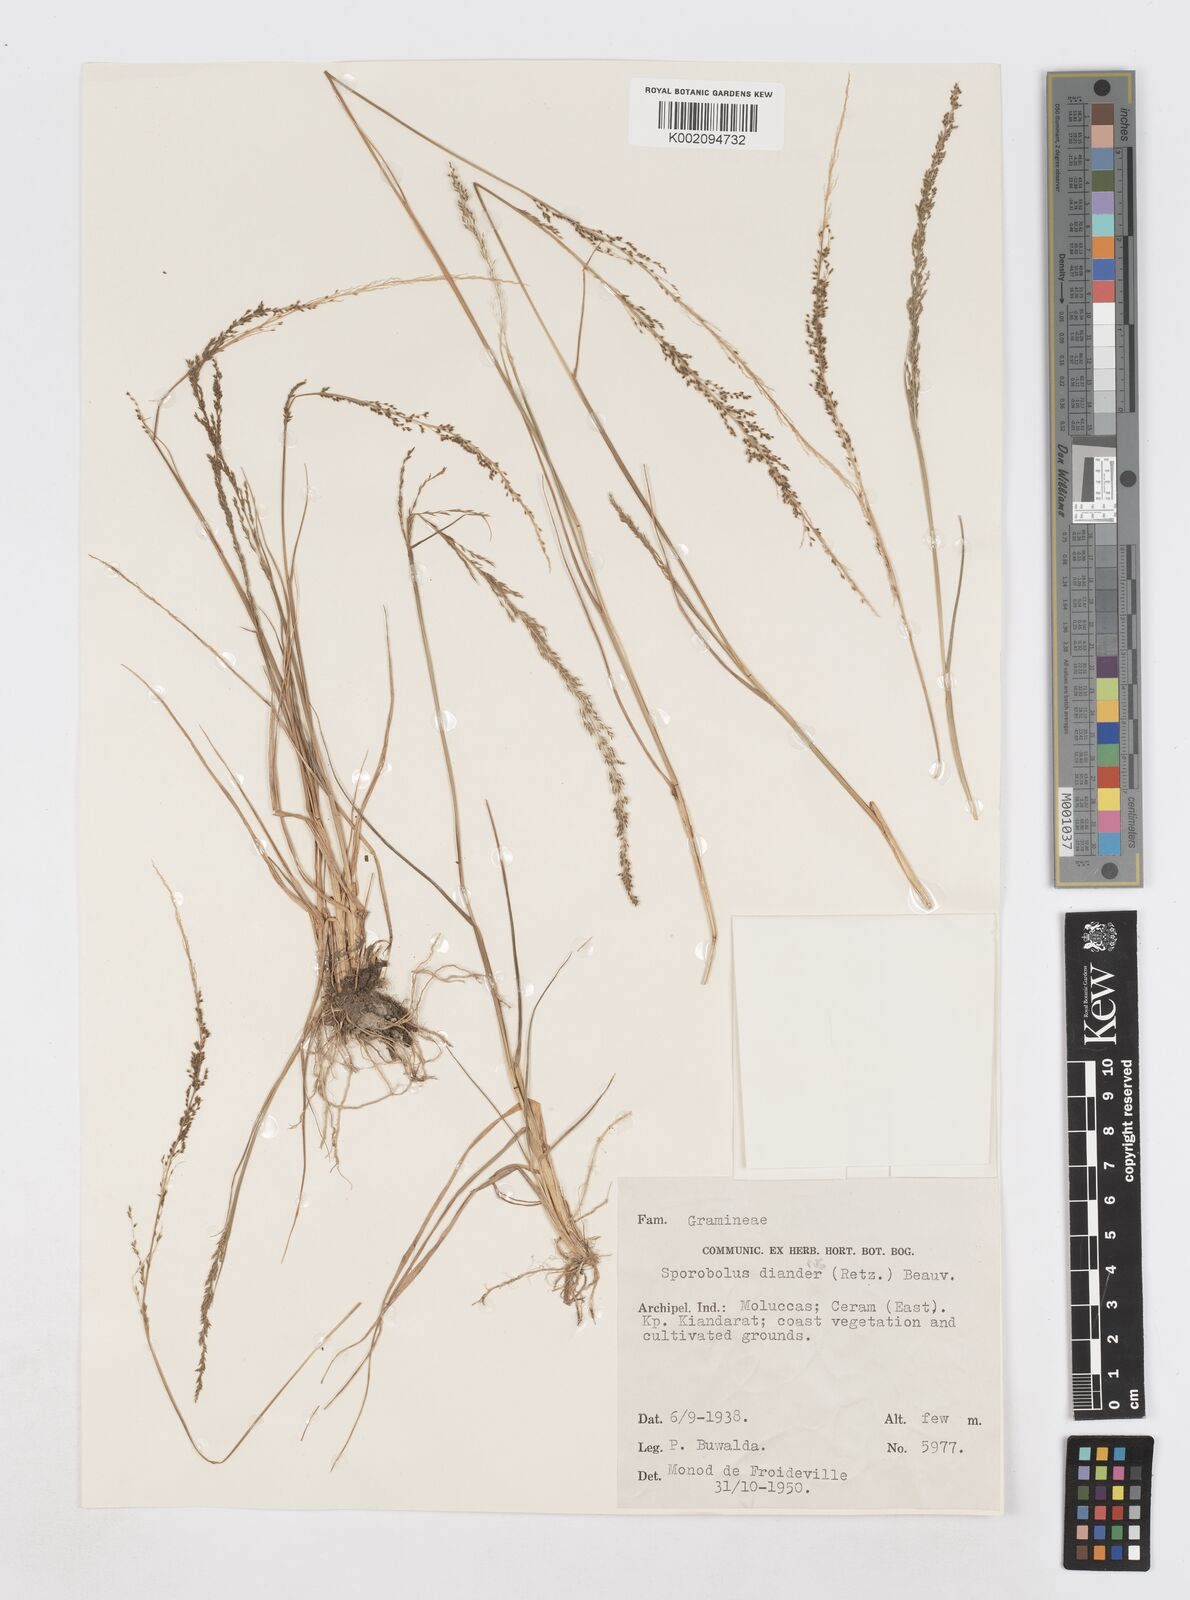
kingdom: Plantae
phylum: Tracheophyta
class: Liliopsida
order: Poales
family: Poaceae
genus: Sporobolus
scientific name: Sporobolus diandrus
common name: Tussock dropseed
